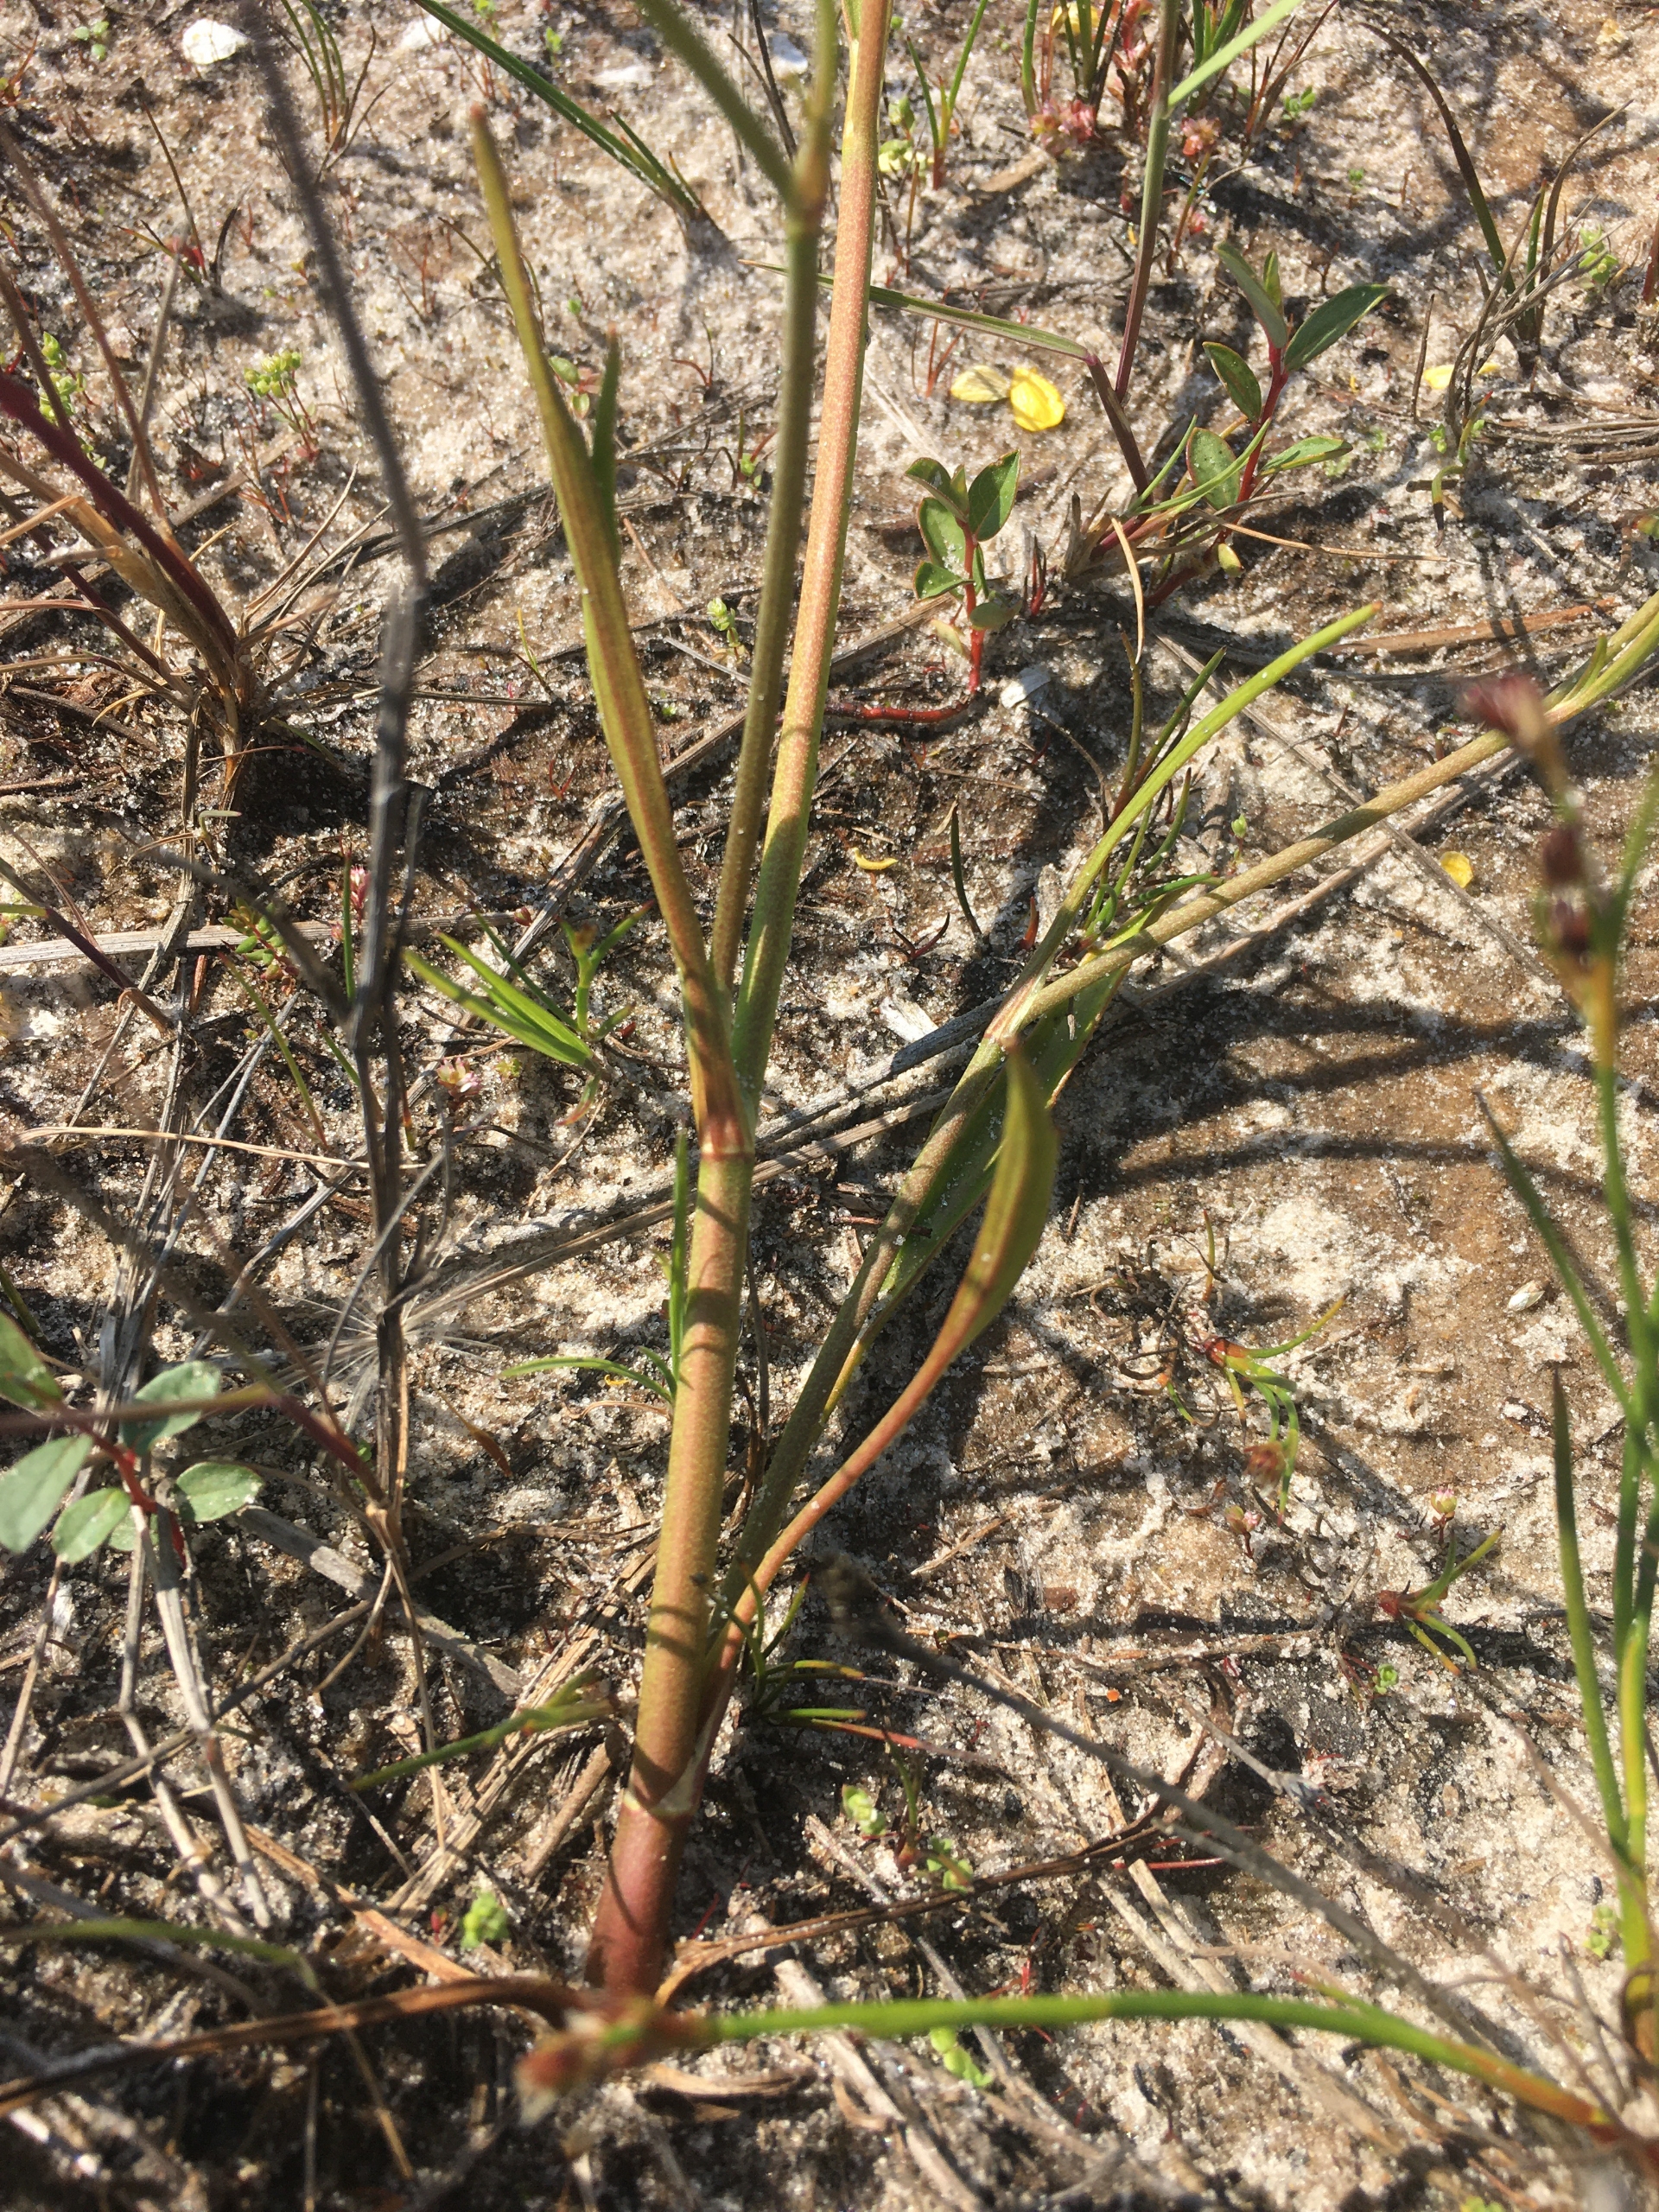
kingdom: Plantae
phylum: Tracheophyta
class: Magnoliopsida
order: Ranunculales
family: Ranunculaceae
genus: Ranunculus
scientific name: Ranunculus flammula
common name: Kær-ranunkel
